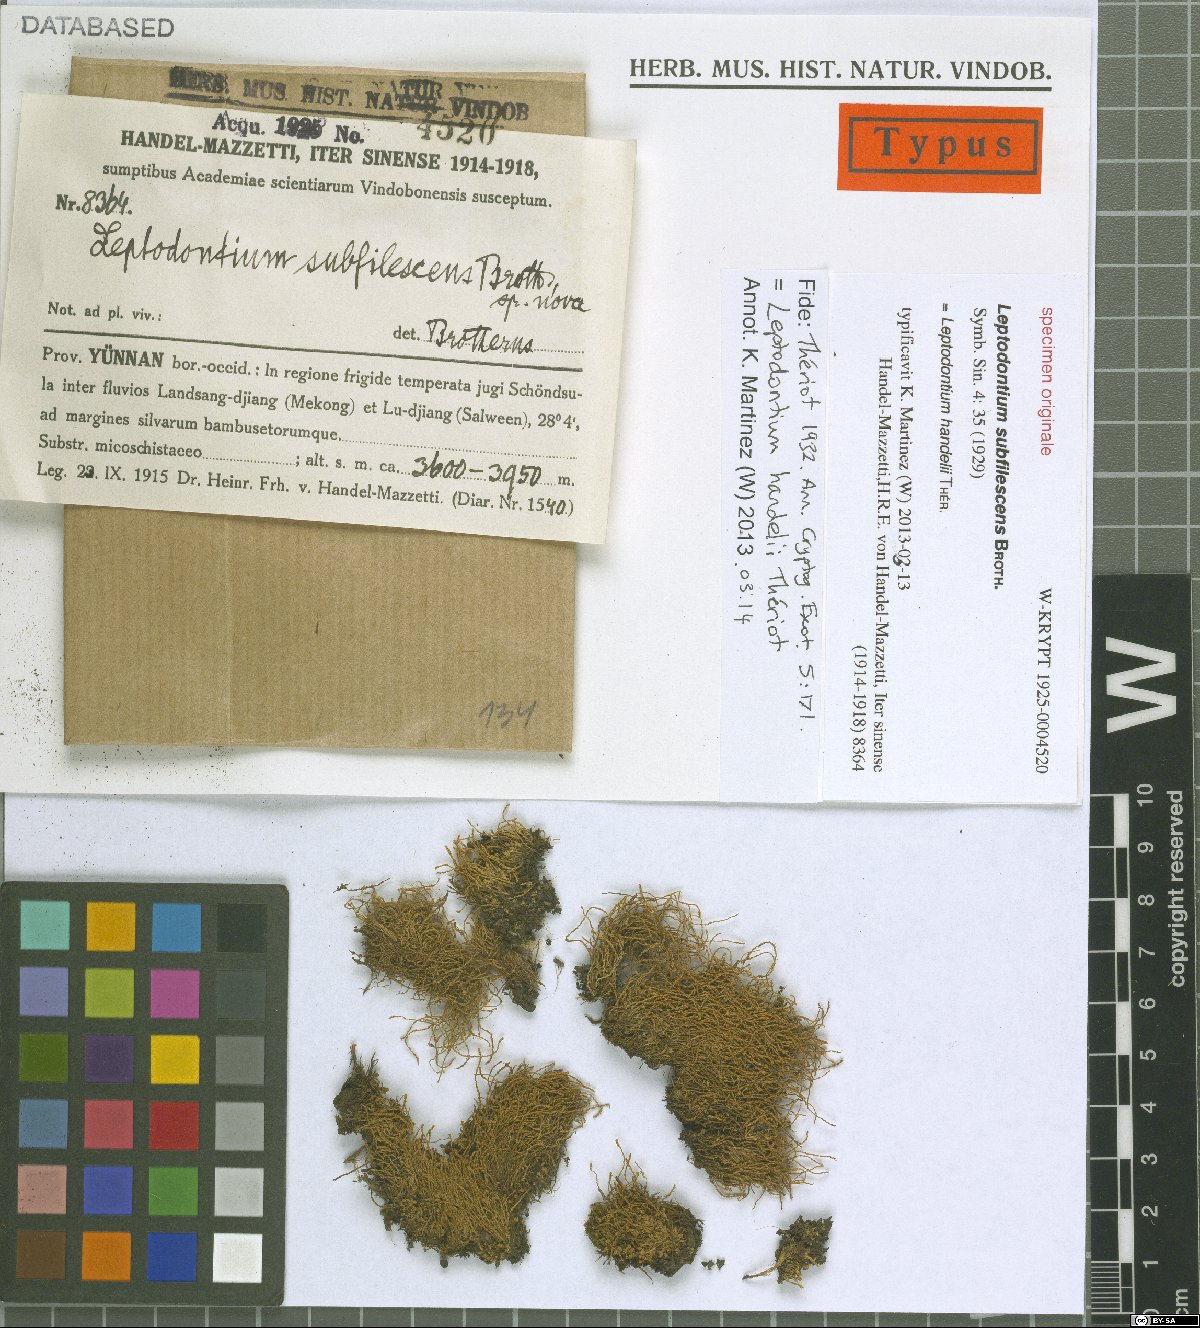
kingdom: Plantae
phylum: Bryophyta
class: Bryopsida
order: Pottiales
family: Pottiaceae
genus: Leptodontium
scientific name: Leptodontium flexifolium
